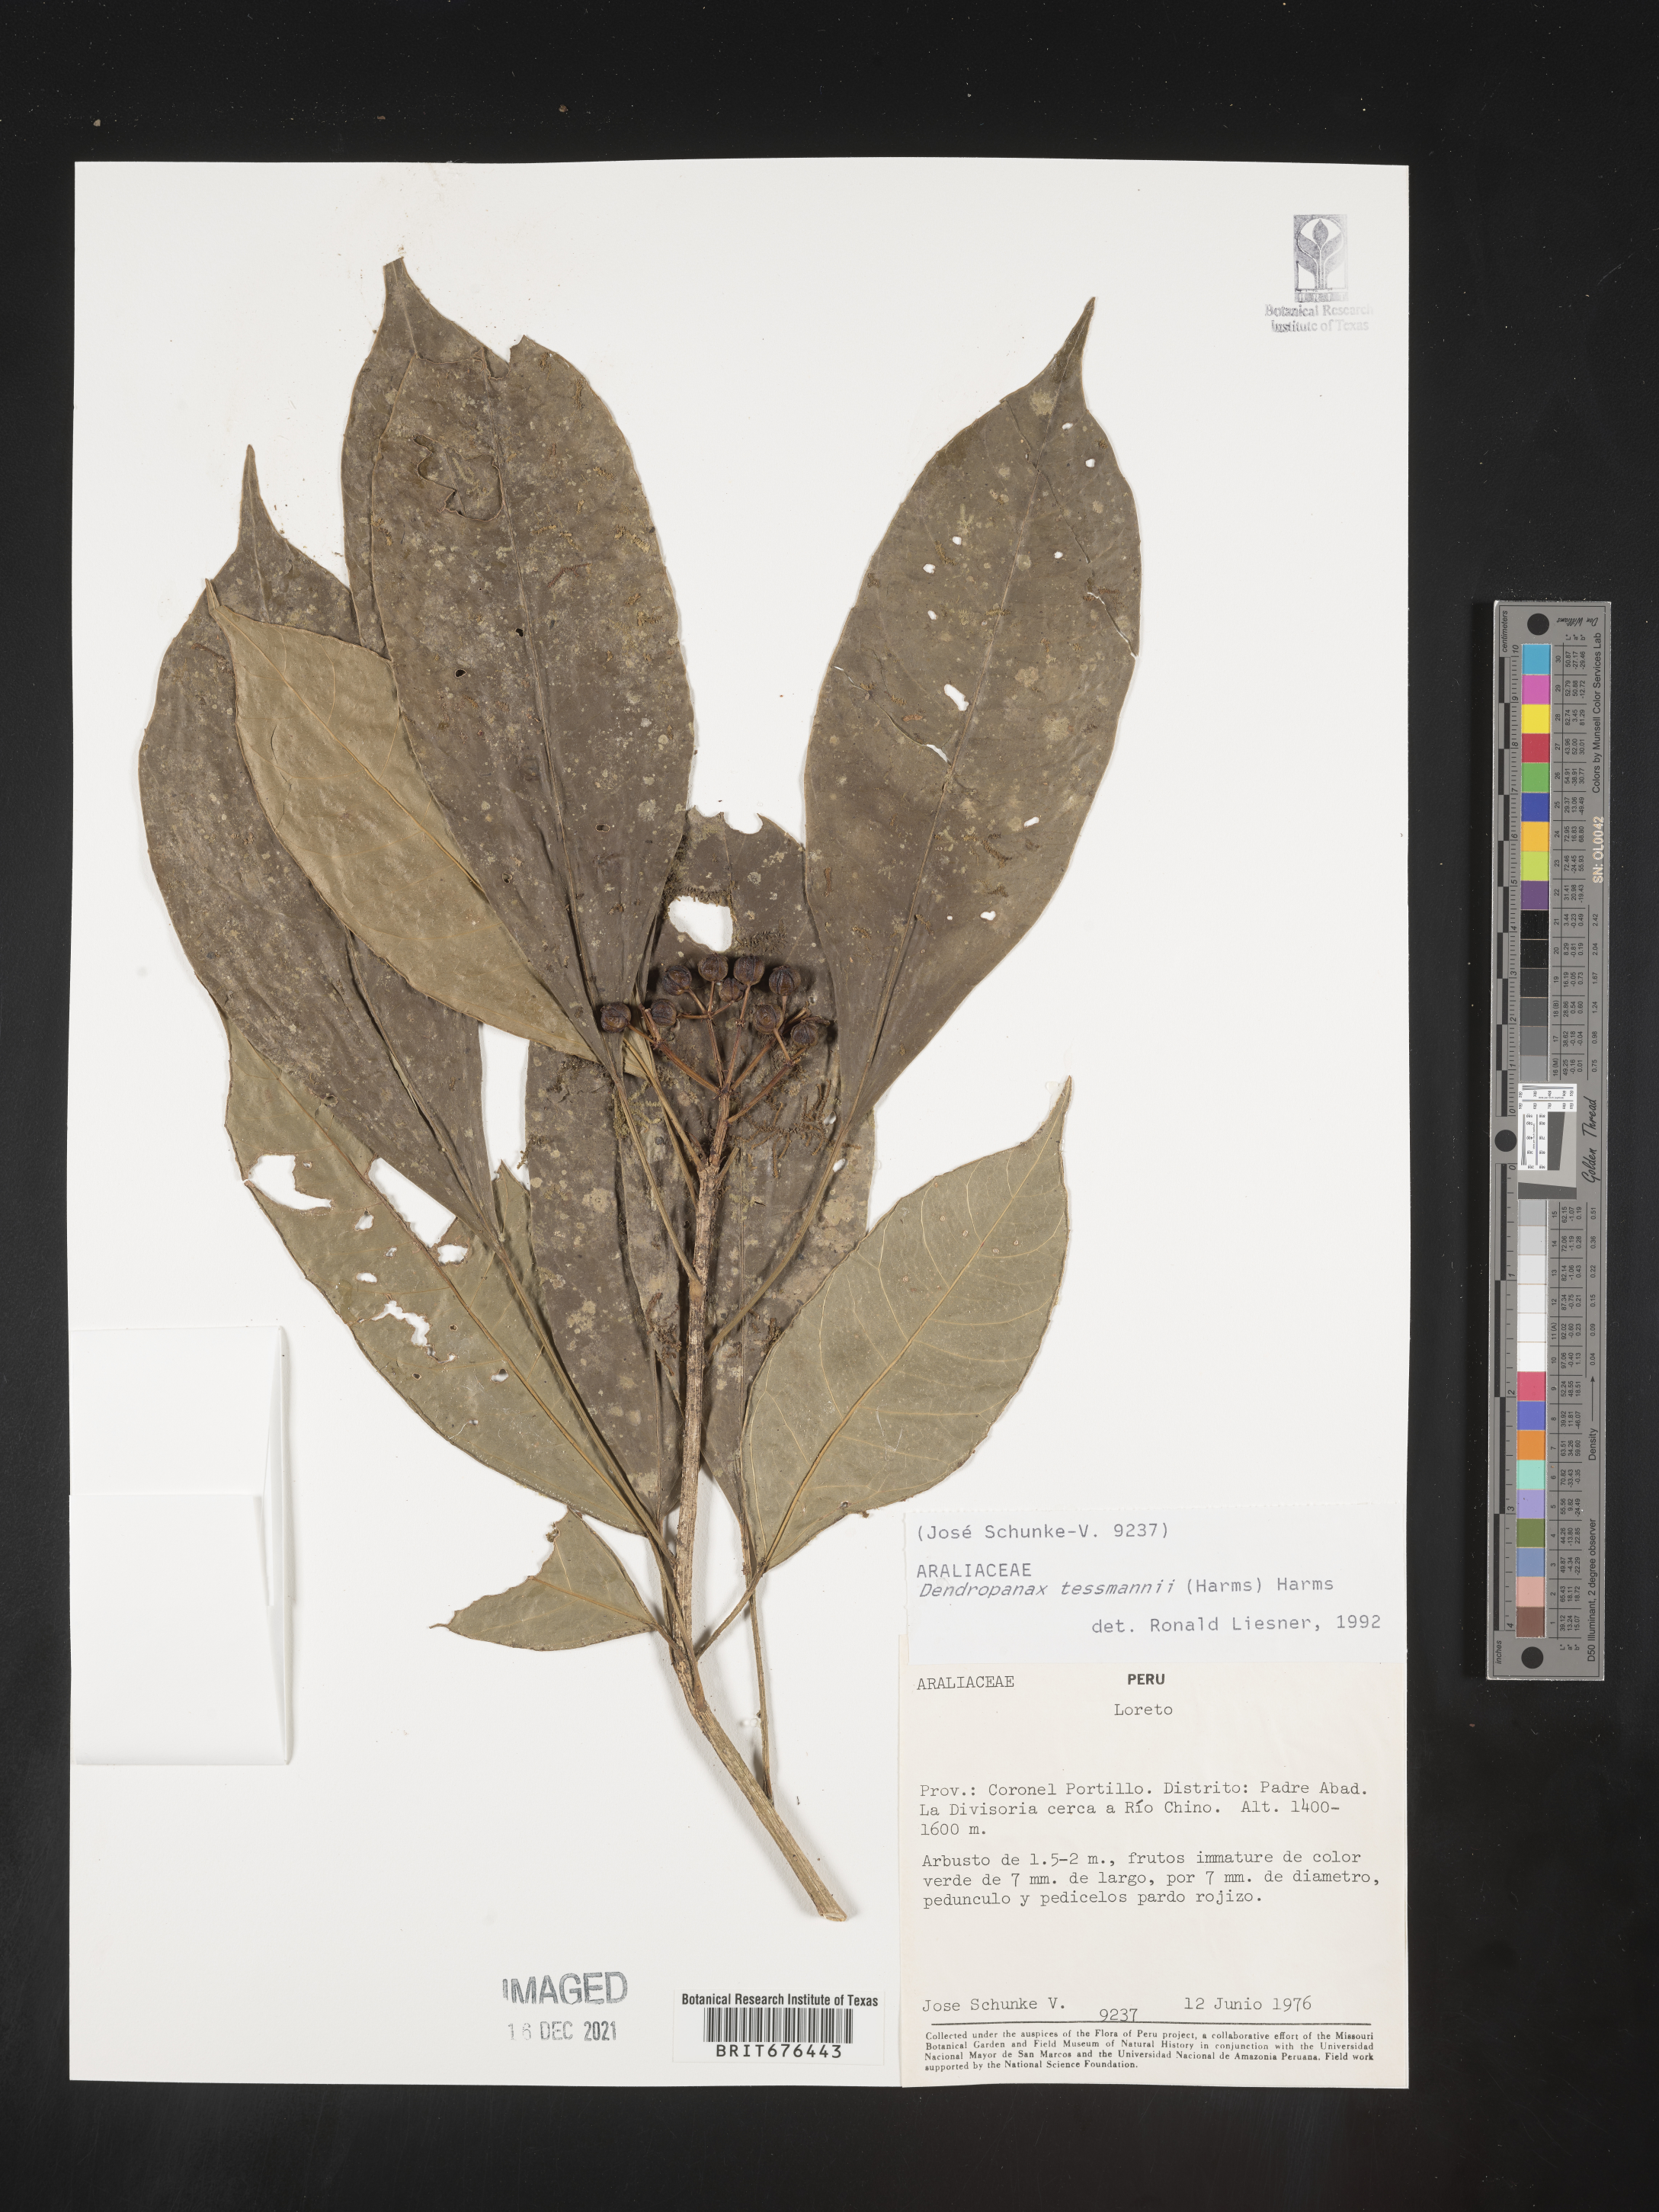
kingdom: Plantae
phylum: Tracheophyta
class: Magnoliopsida
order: Apiales
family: Araliaceae
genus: Dendropanax
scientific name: Dendropanax
